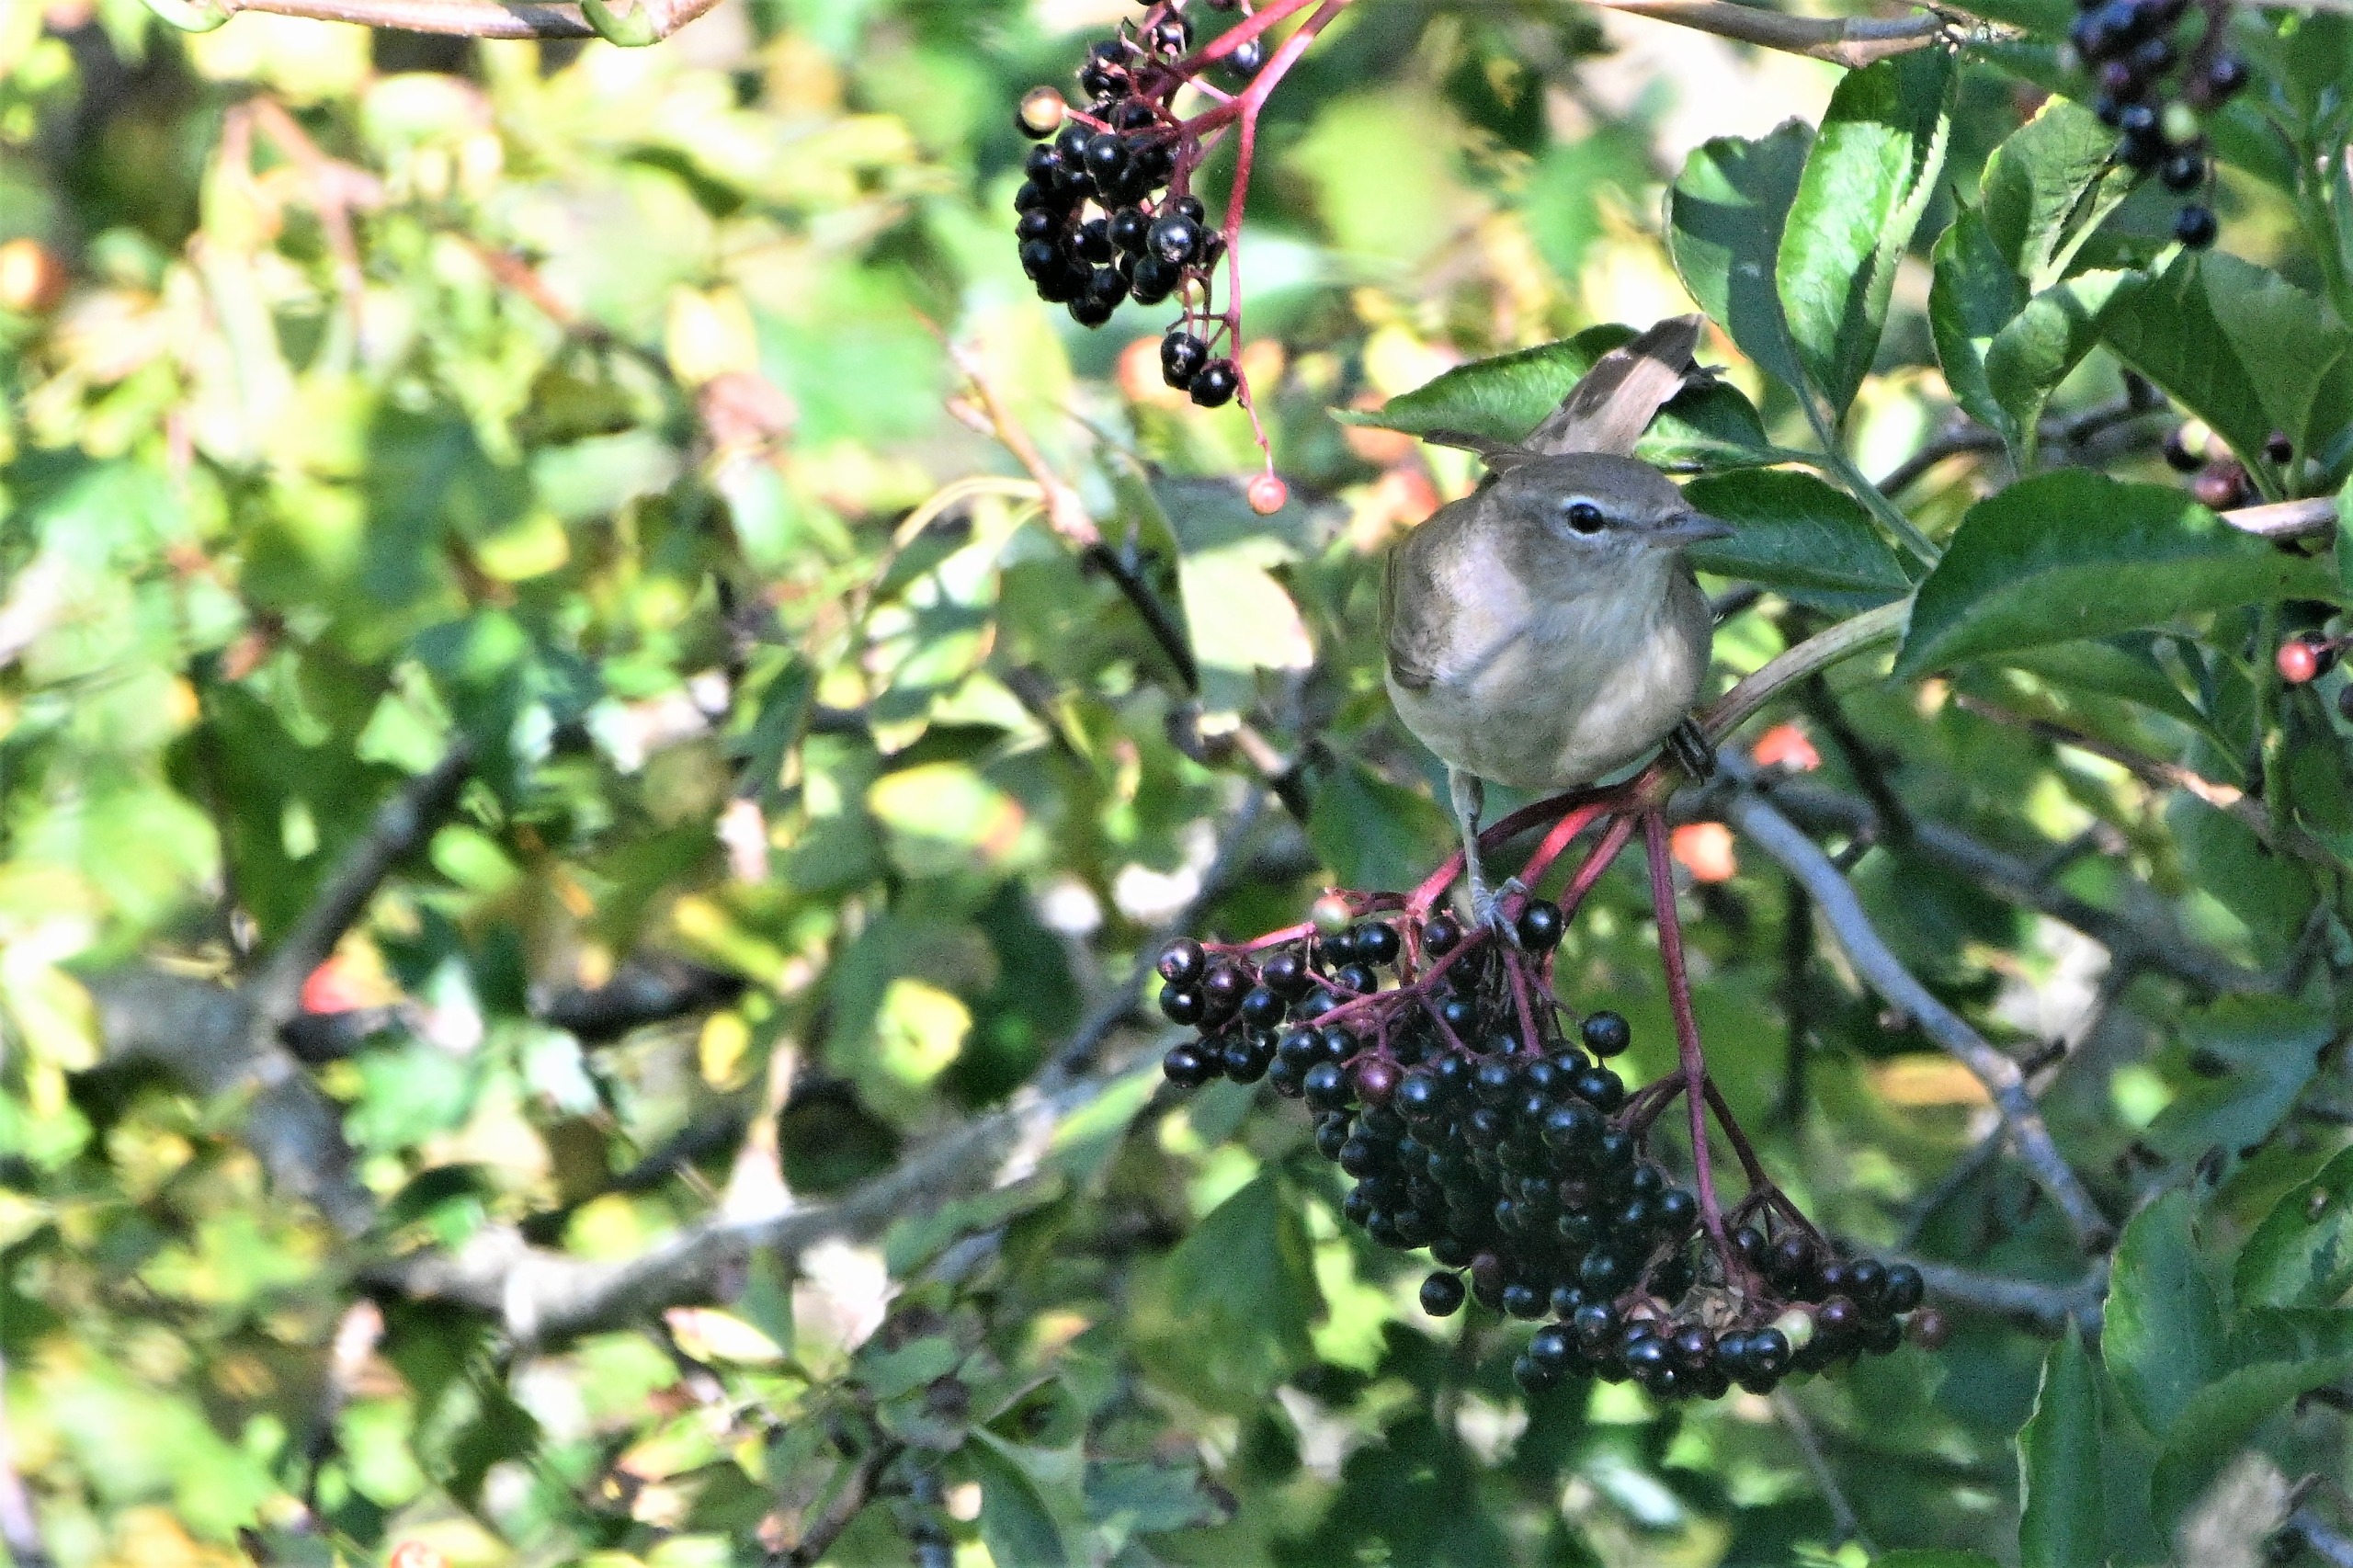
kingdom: Animalia
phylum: Chordata
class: Aves
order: Passeriformes
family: Sylviidae
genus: Sylvia
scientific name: Sylvia borin
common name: Havesanger
